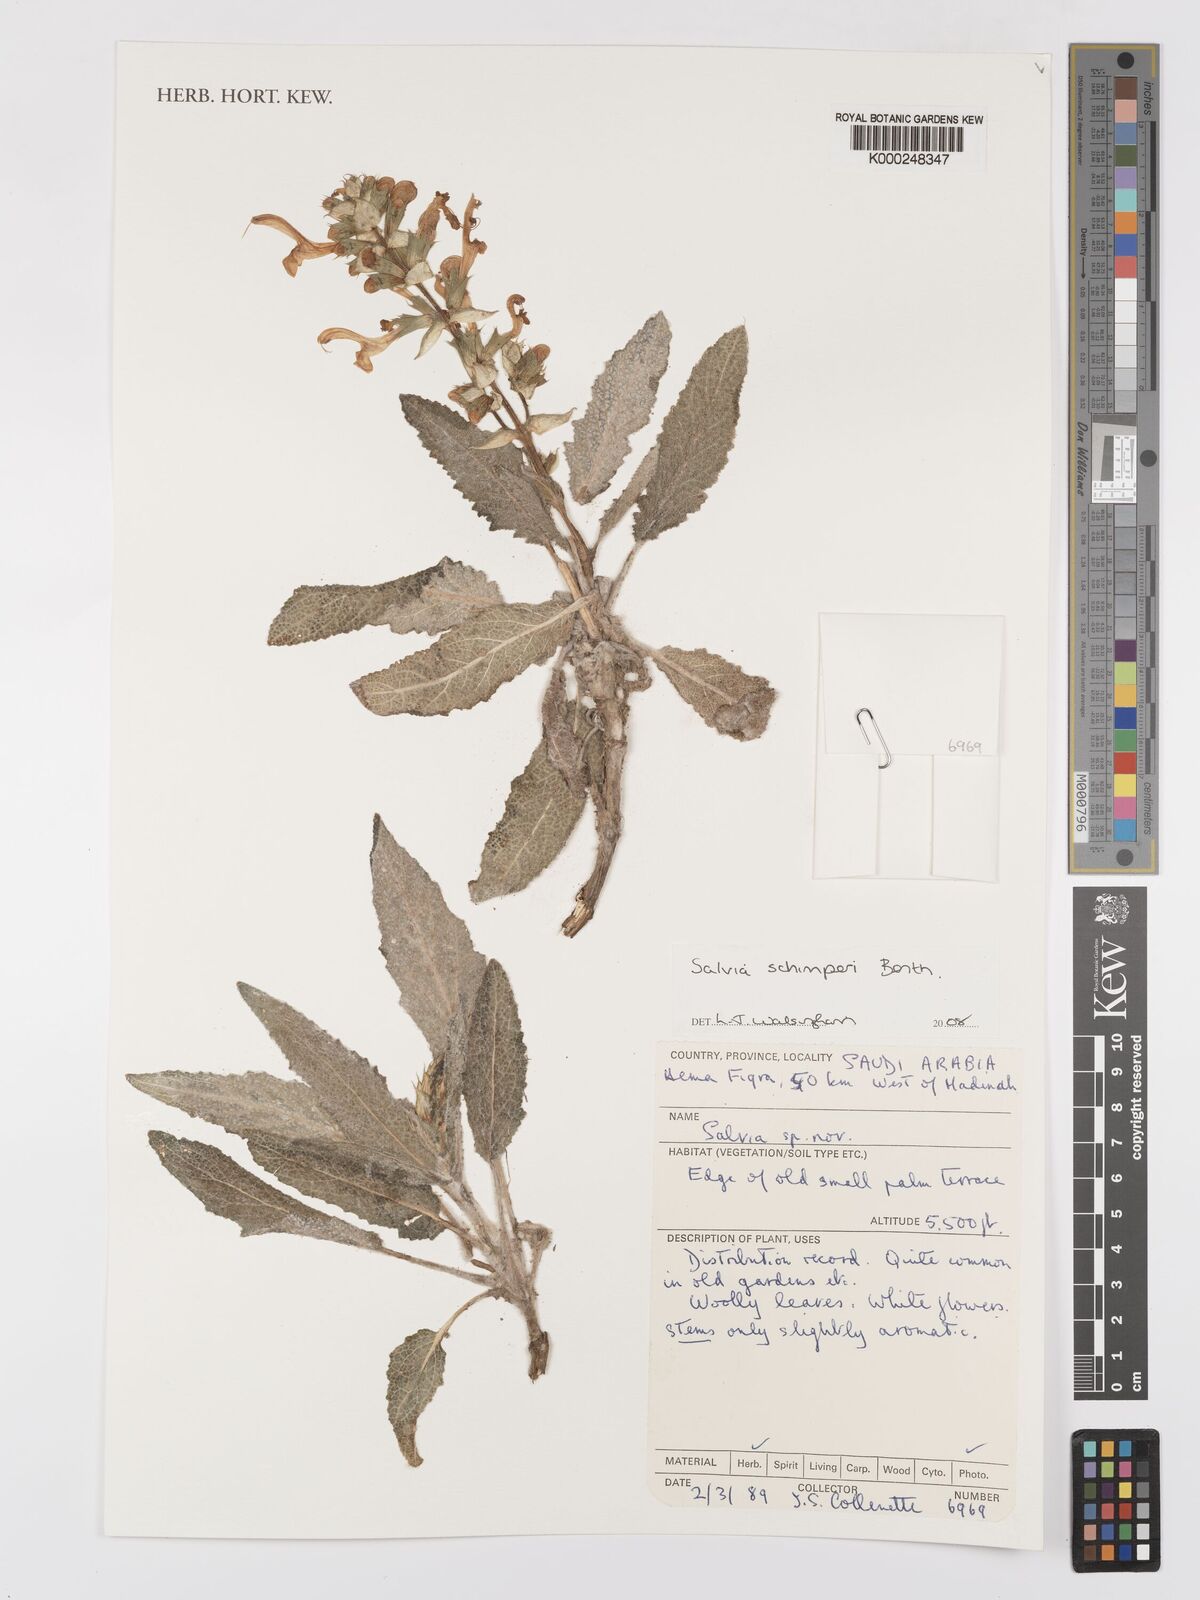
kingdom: Plantae
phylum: Tracheophyta
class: Magnoliopsida
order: Lamiales
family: Lamiaceae
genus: Salvia
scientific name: Salvia schimperi
